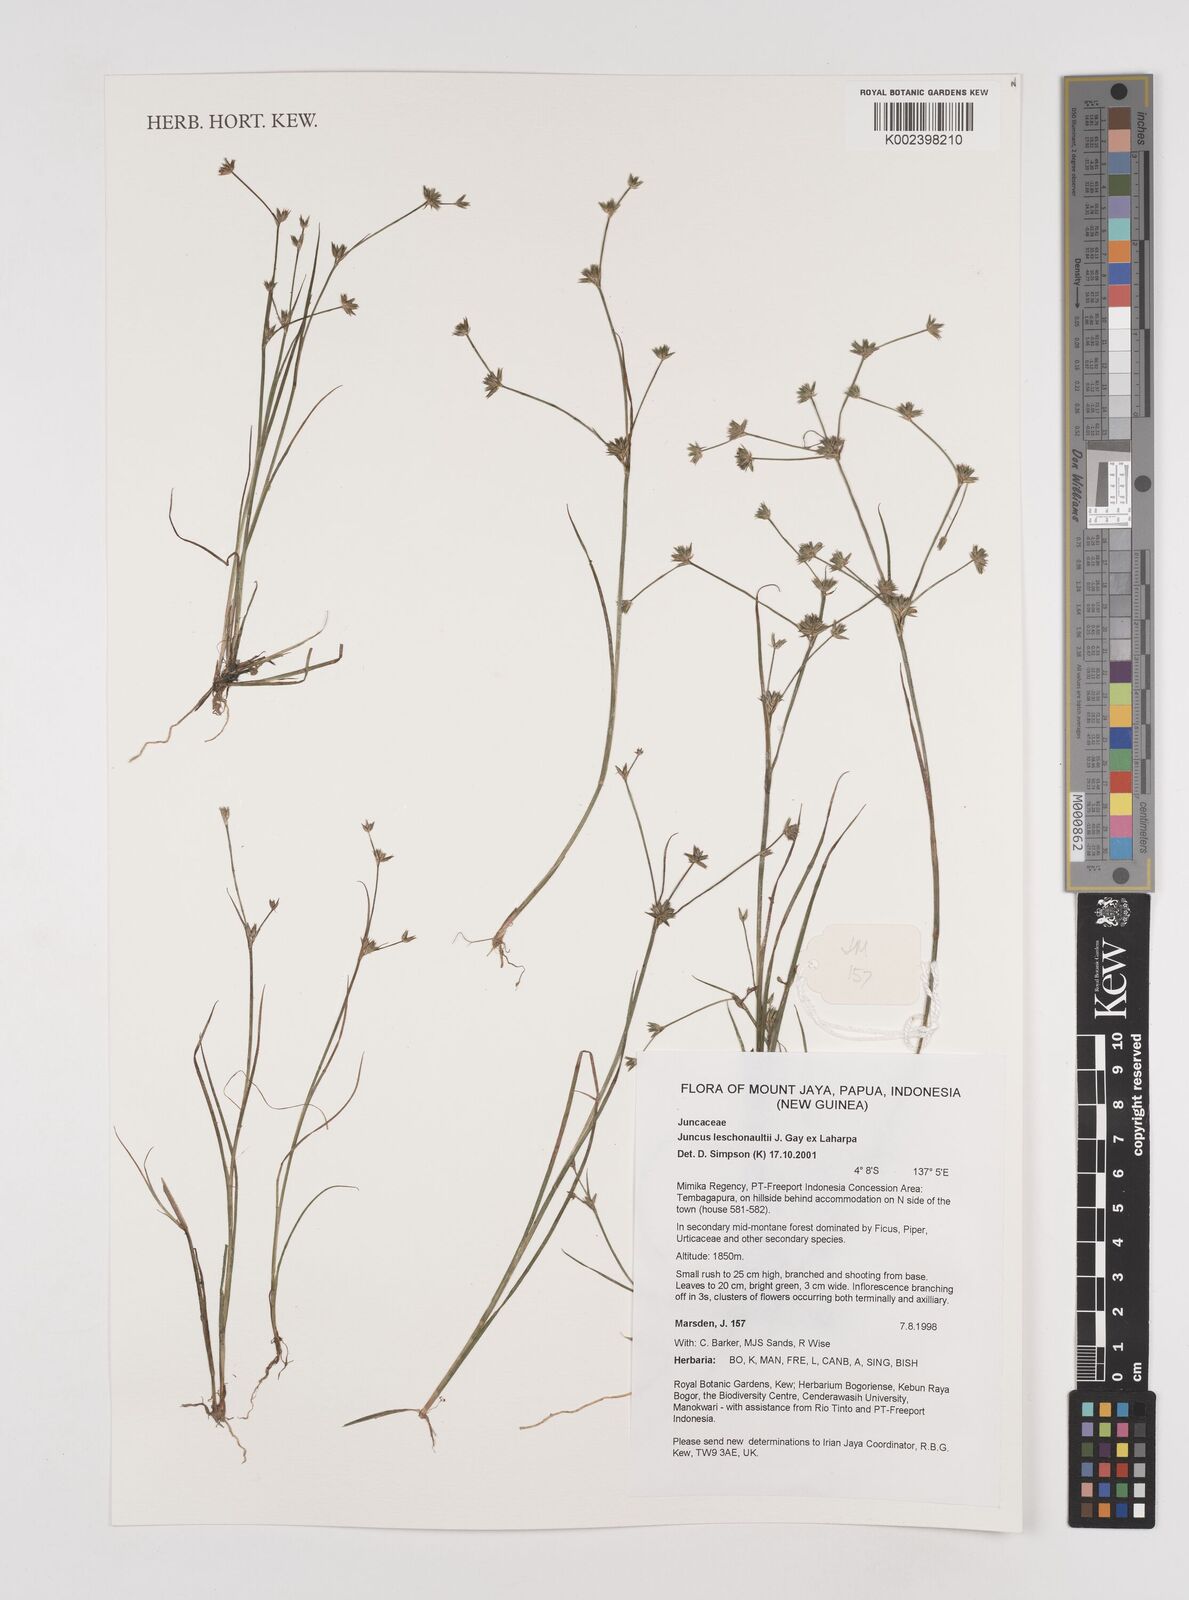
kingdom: Plantae
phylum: Tracheophyta
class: Liliopsida
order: Poales
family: Juncaceae
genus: Juncus
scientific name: Juncus prismatocarpus
